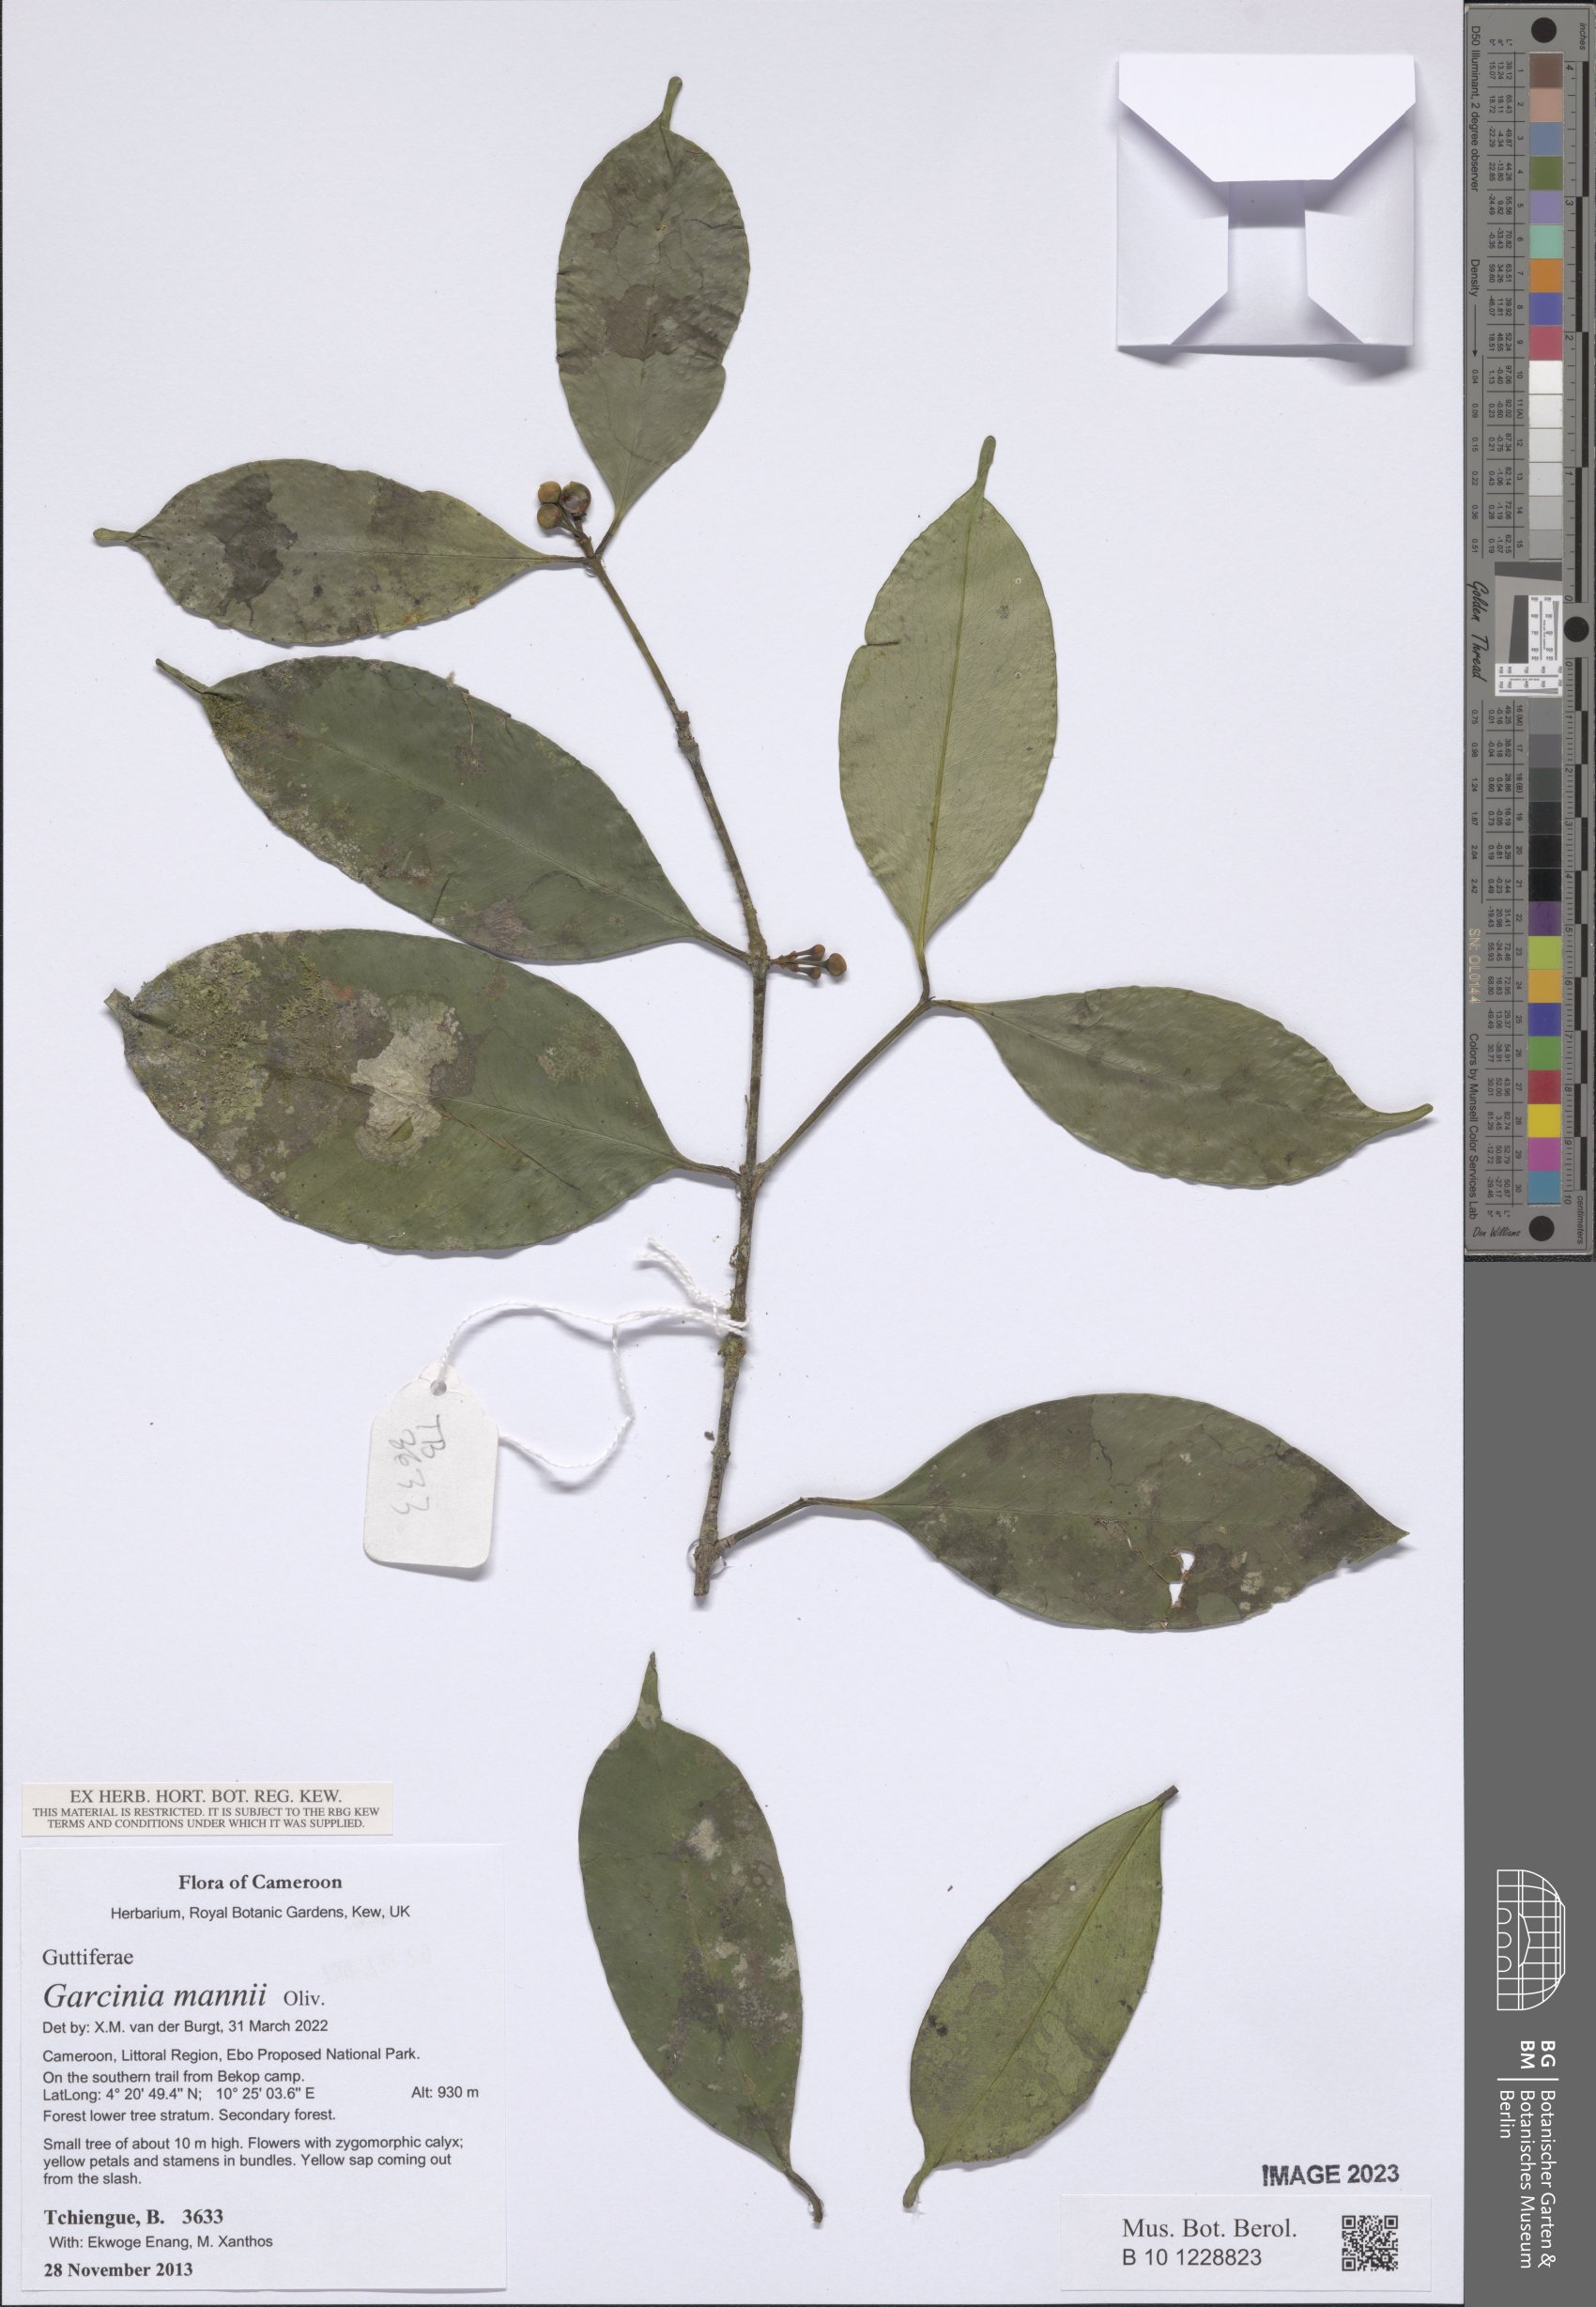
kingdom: Plantae
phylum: Tracheophyta
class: Magnoliopsida
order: Malpighiales
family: Clusiaceae
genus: Garcinia
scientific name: Garcinia mannii
